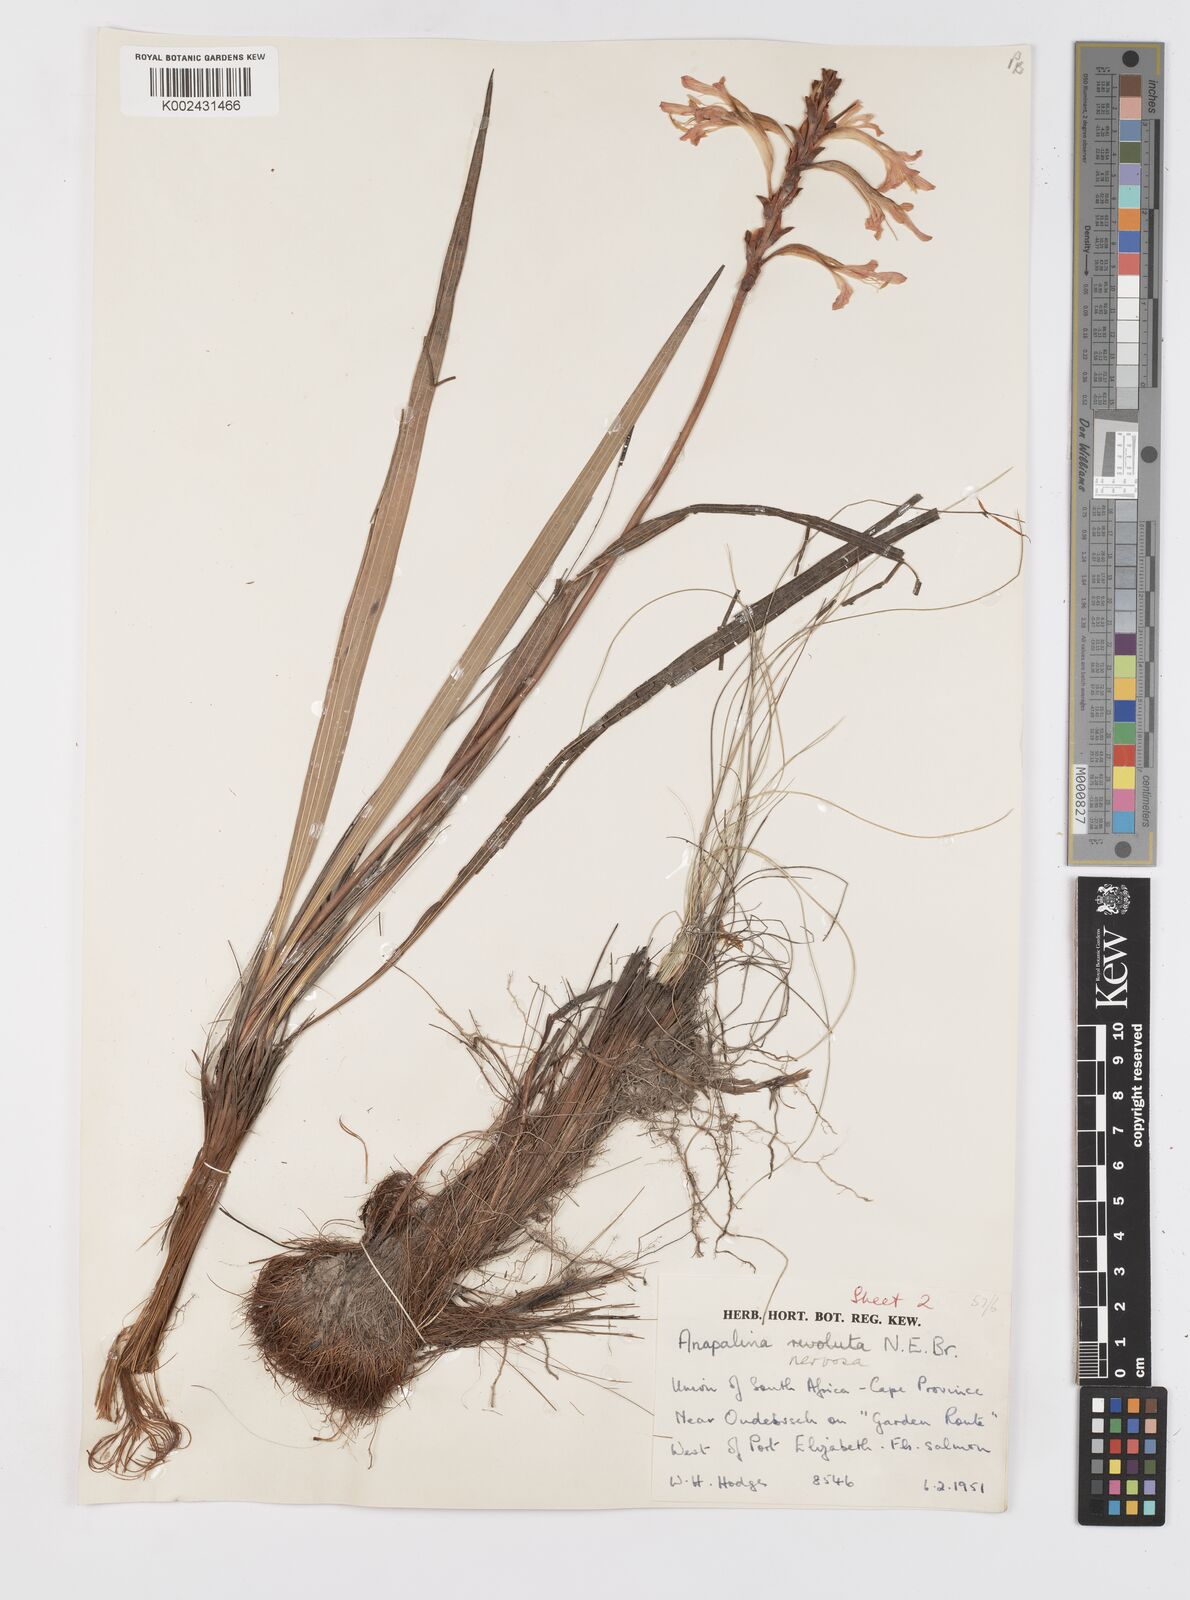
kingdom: Plantae
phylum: Tracheophyta
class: Liliopsida
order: Asparagales
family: Iridaceae
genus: Tritoniopsis
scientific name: Tritoniopsis nervosa
